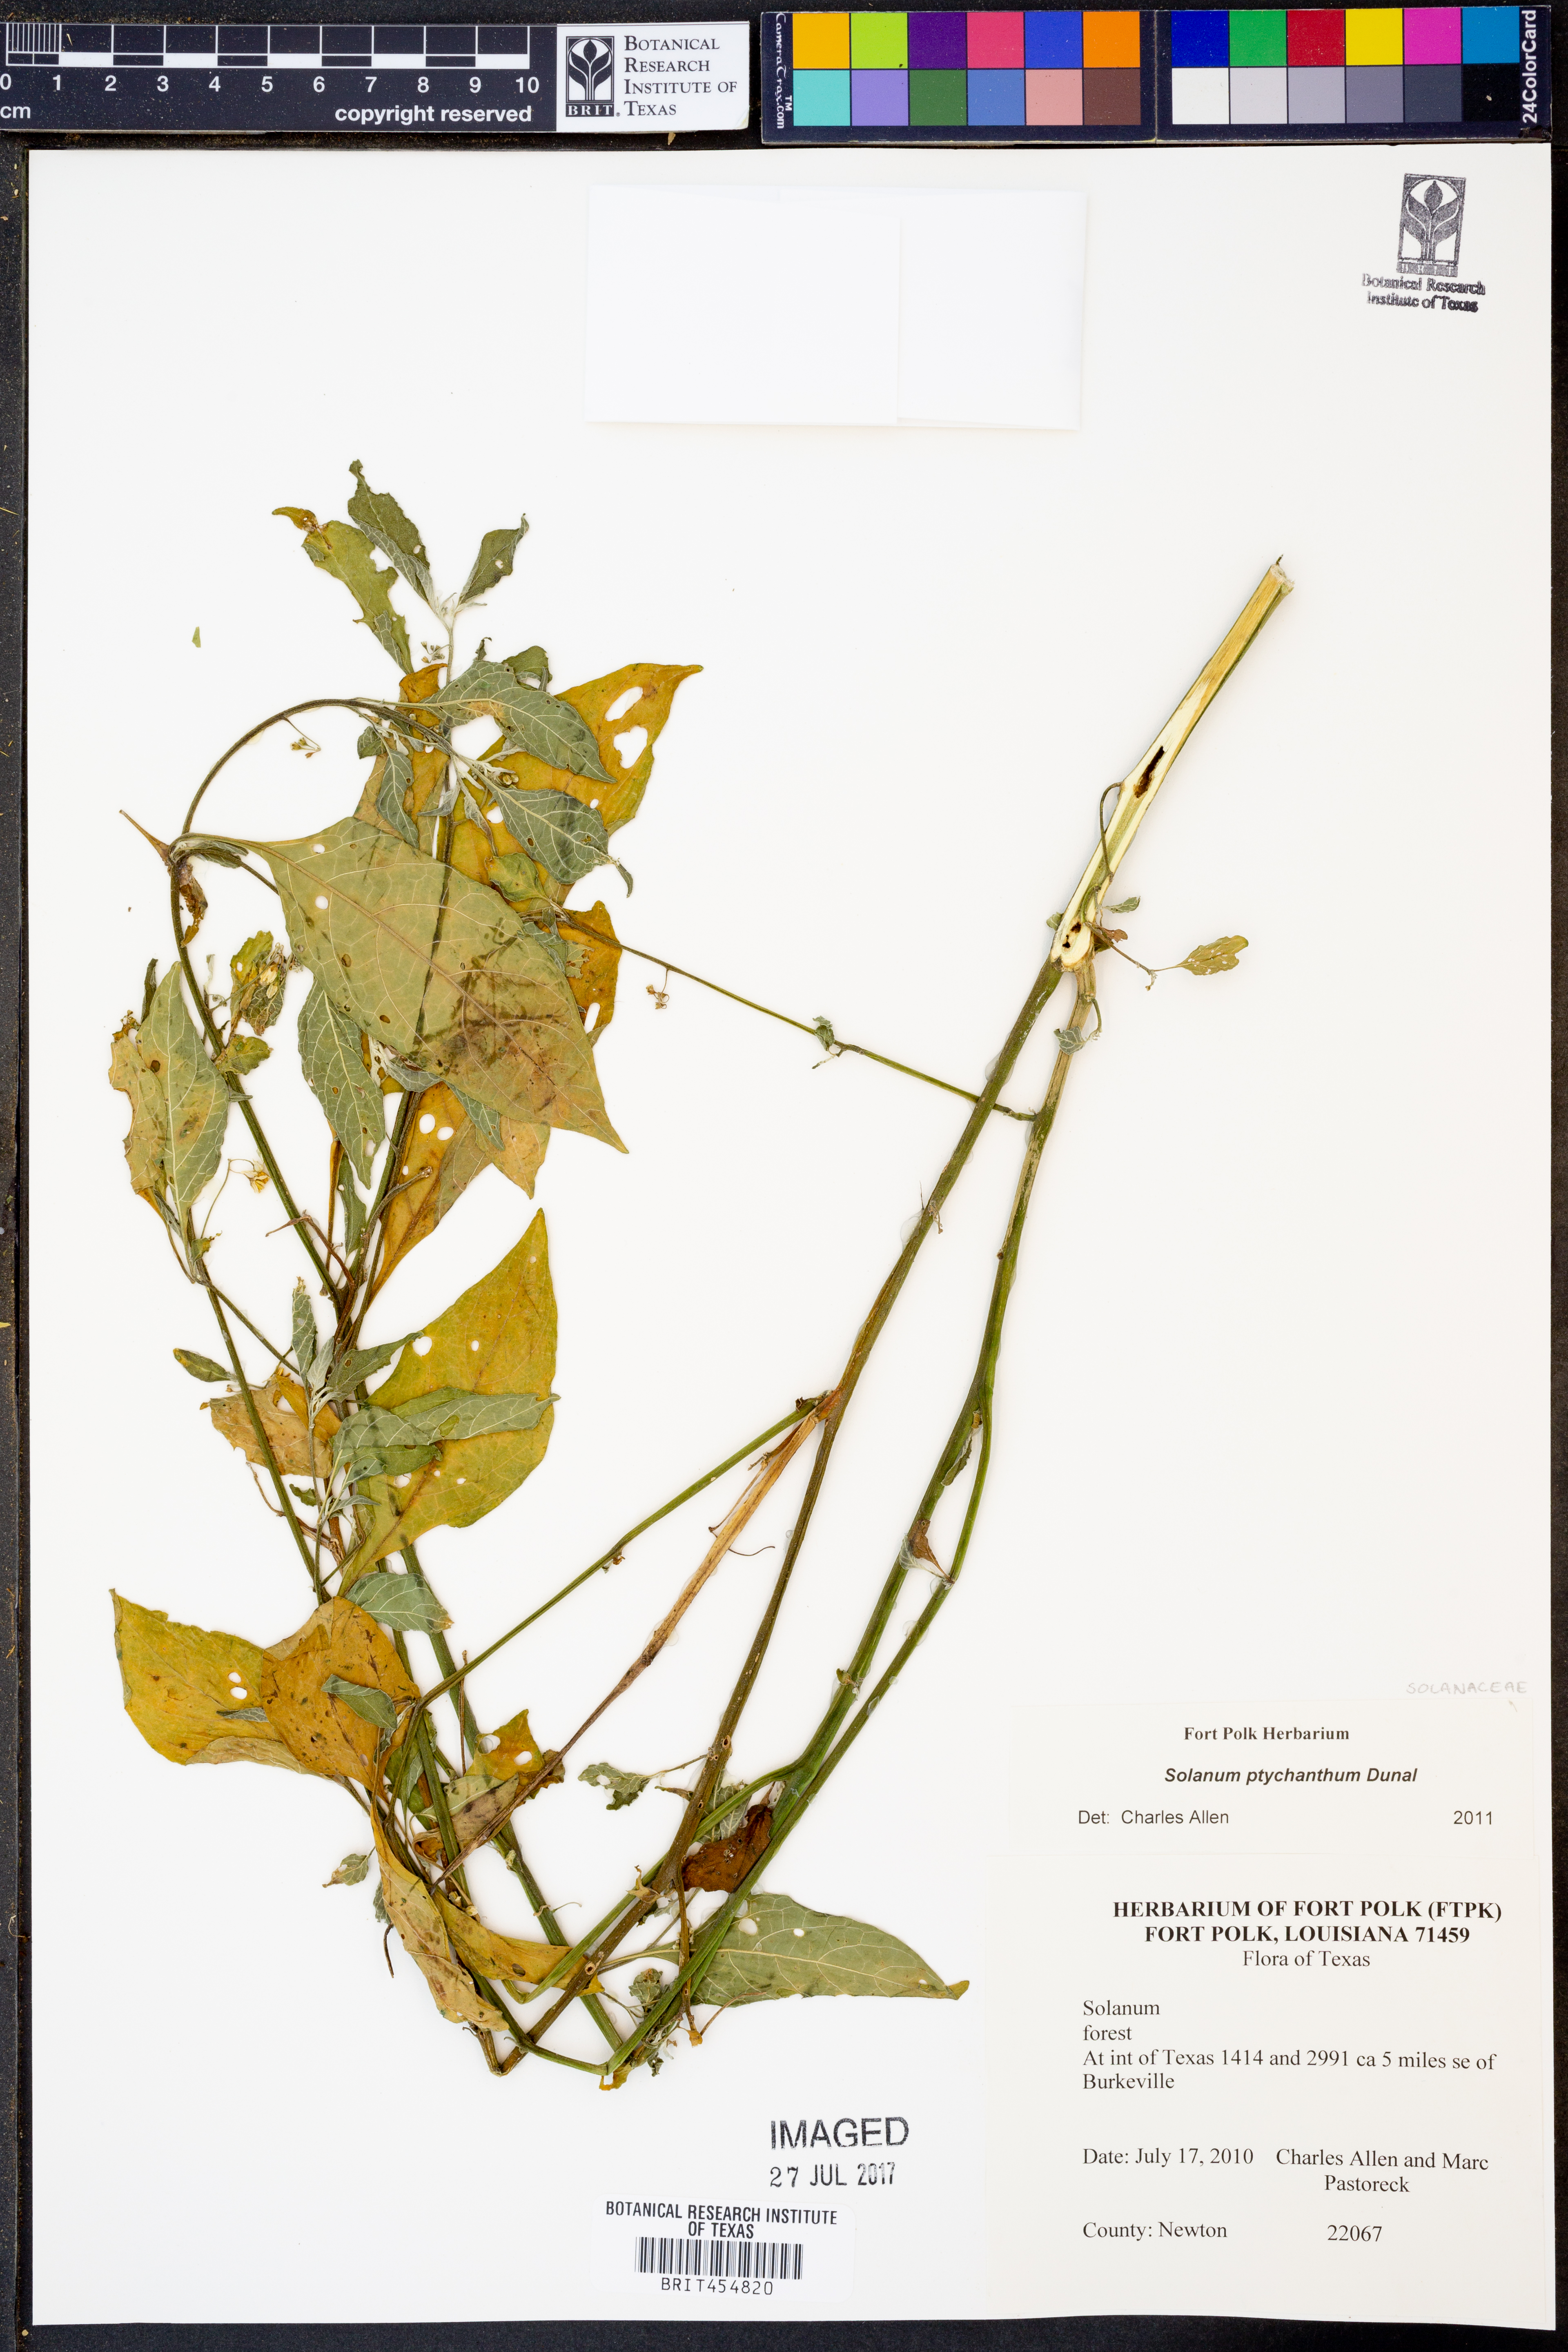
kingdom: Plantae
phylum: Tracheophyta
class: Magnoliopsida
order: Solanales
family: Solanaceae
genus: Solanum
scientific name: Solanum americanum
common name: American black nightshade
